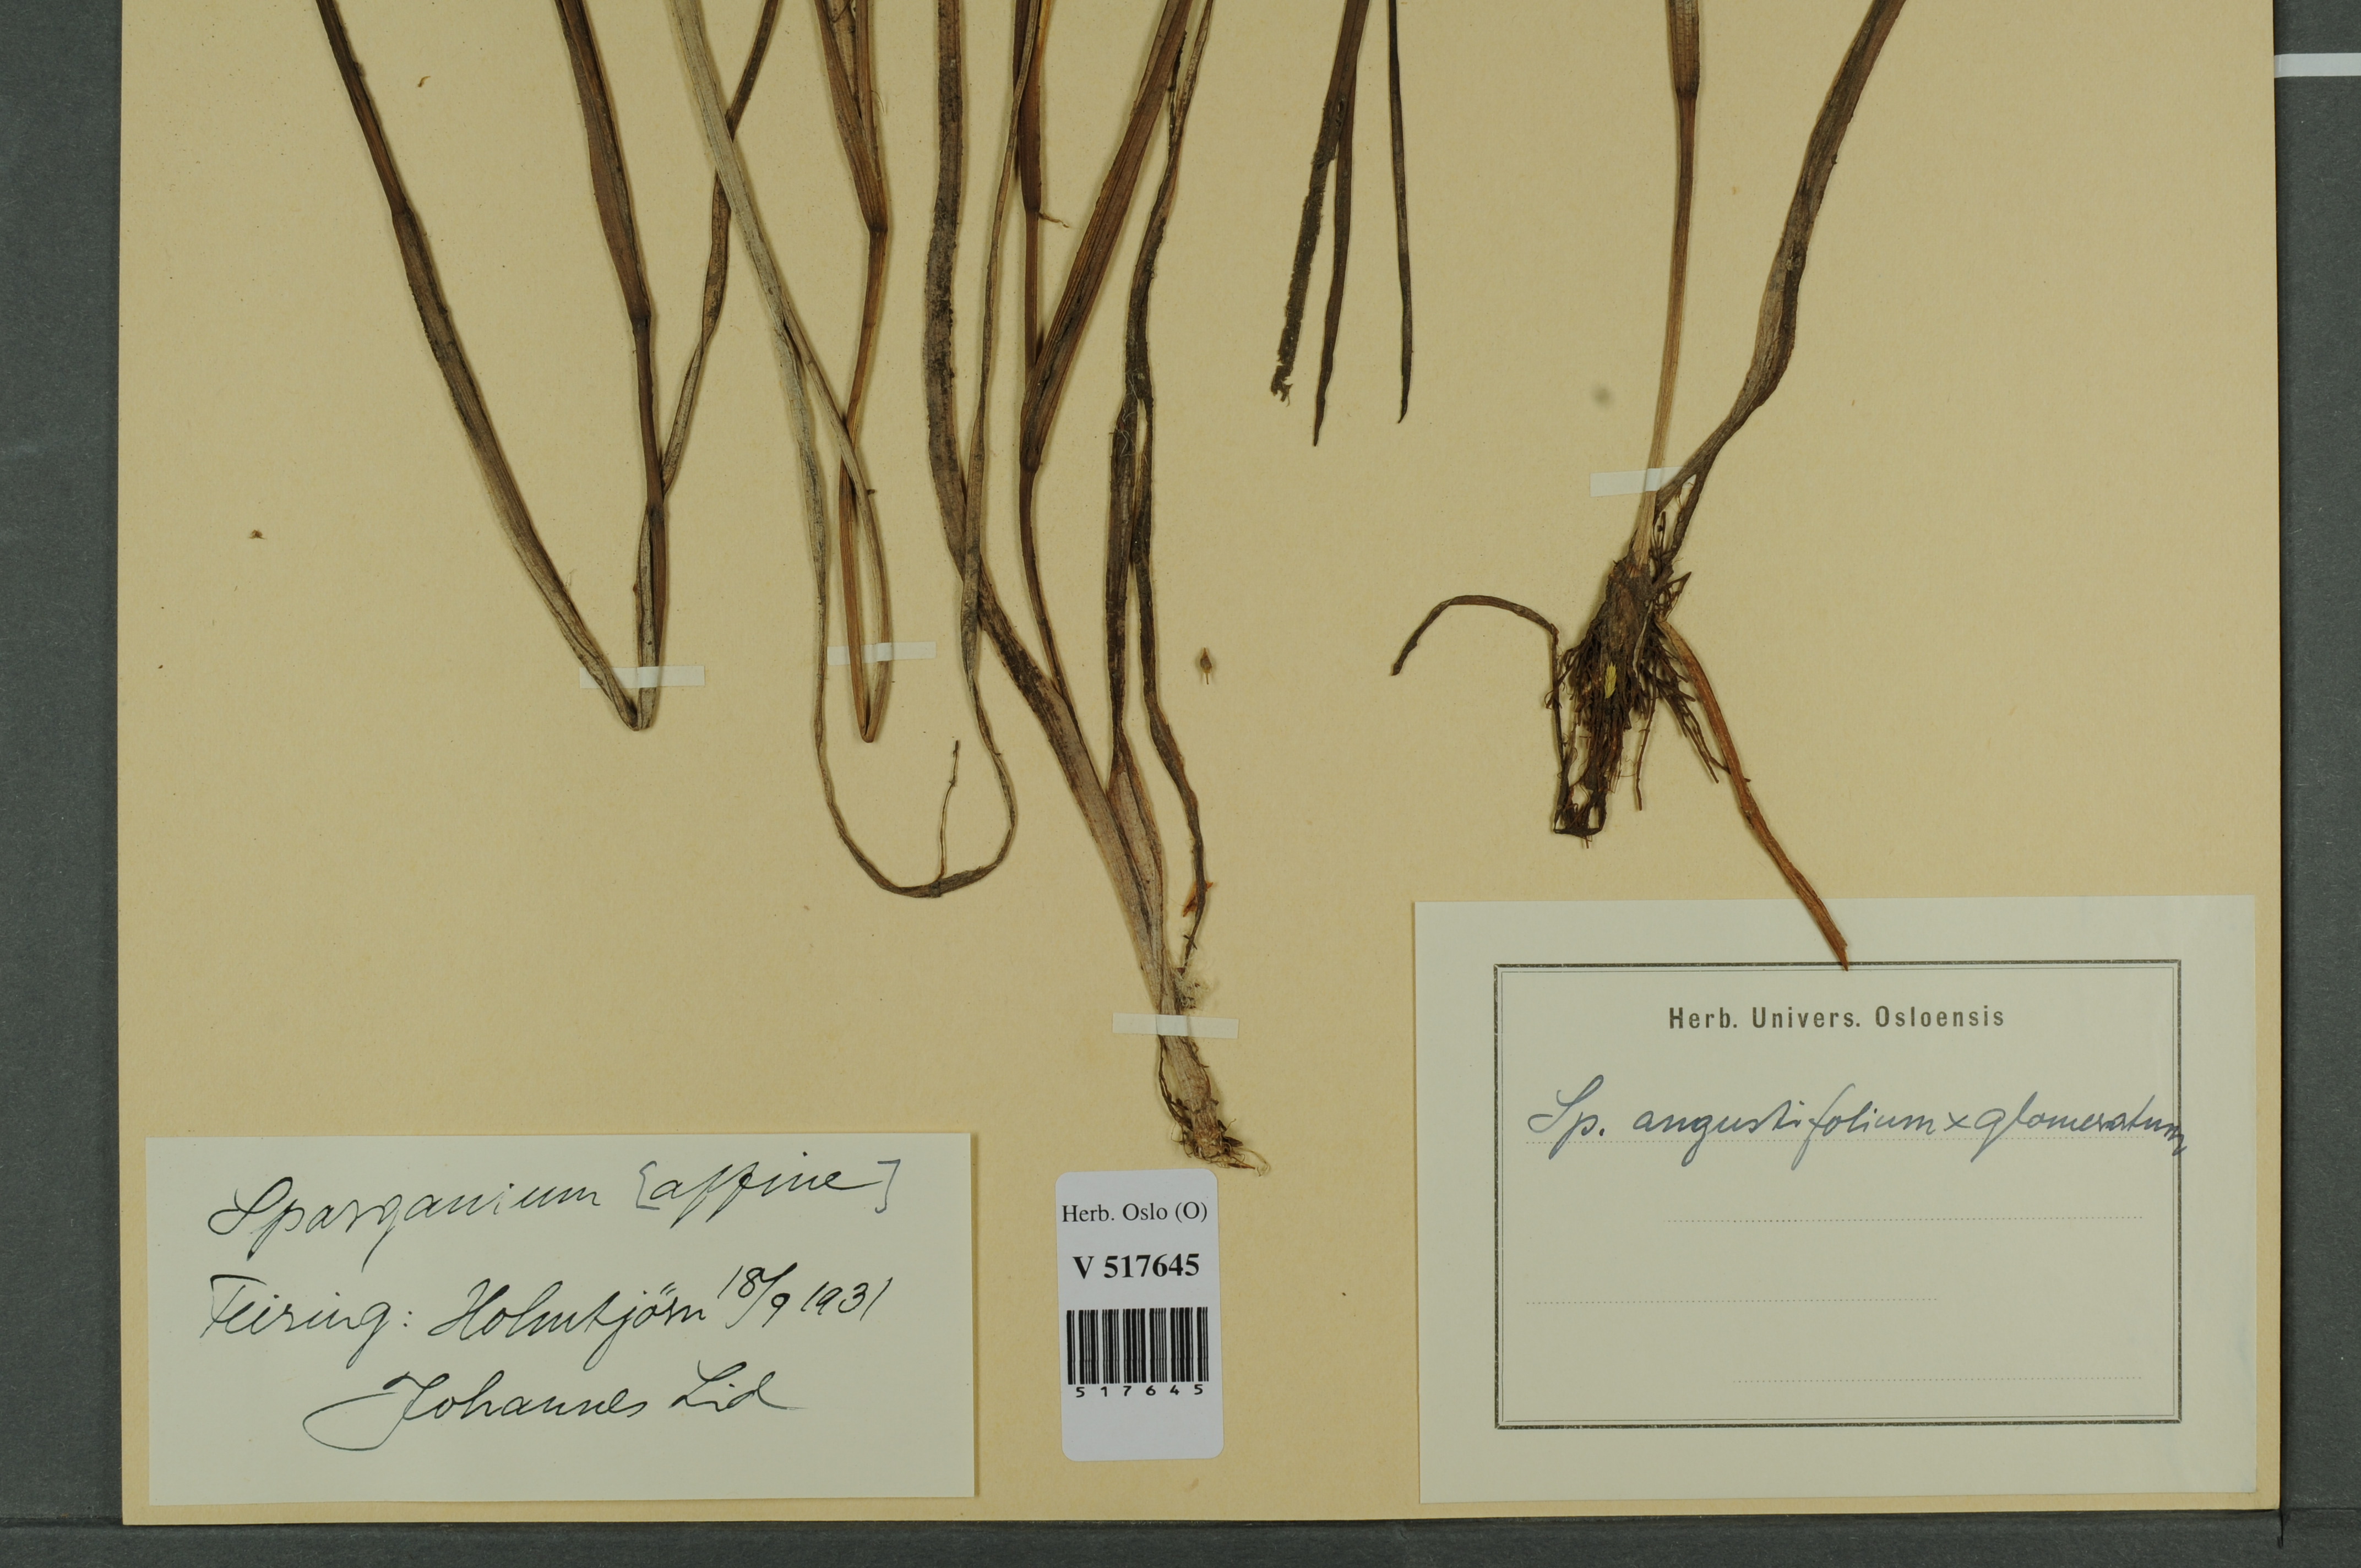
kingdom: Plantae
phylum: Tracheophyta
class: Liliopsida
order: Poales
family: Typhaceae
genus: Sparganium
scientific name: Sparganium
